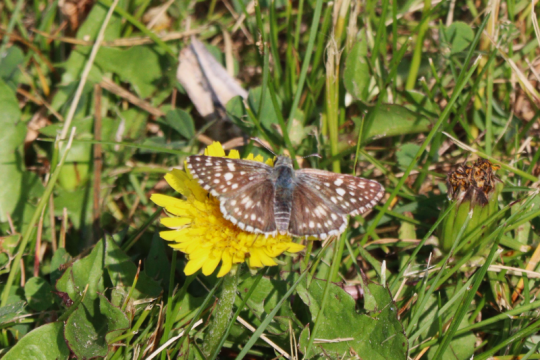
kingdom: Animalia
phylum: Arthropoda
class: Insecta
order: Lepidoptera
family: Hesperiidae
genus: Pyrgus
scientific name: Pyrgus communis
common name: Common Checkered-Skipper
